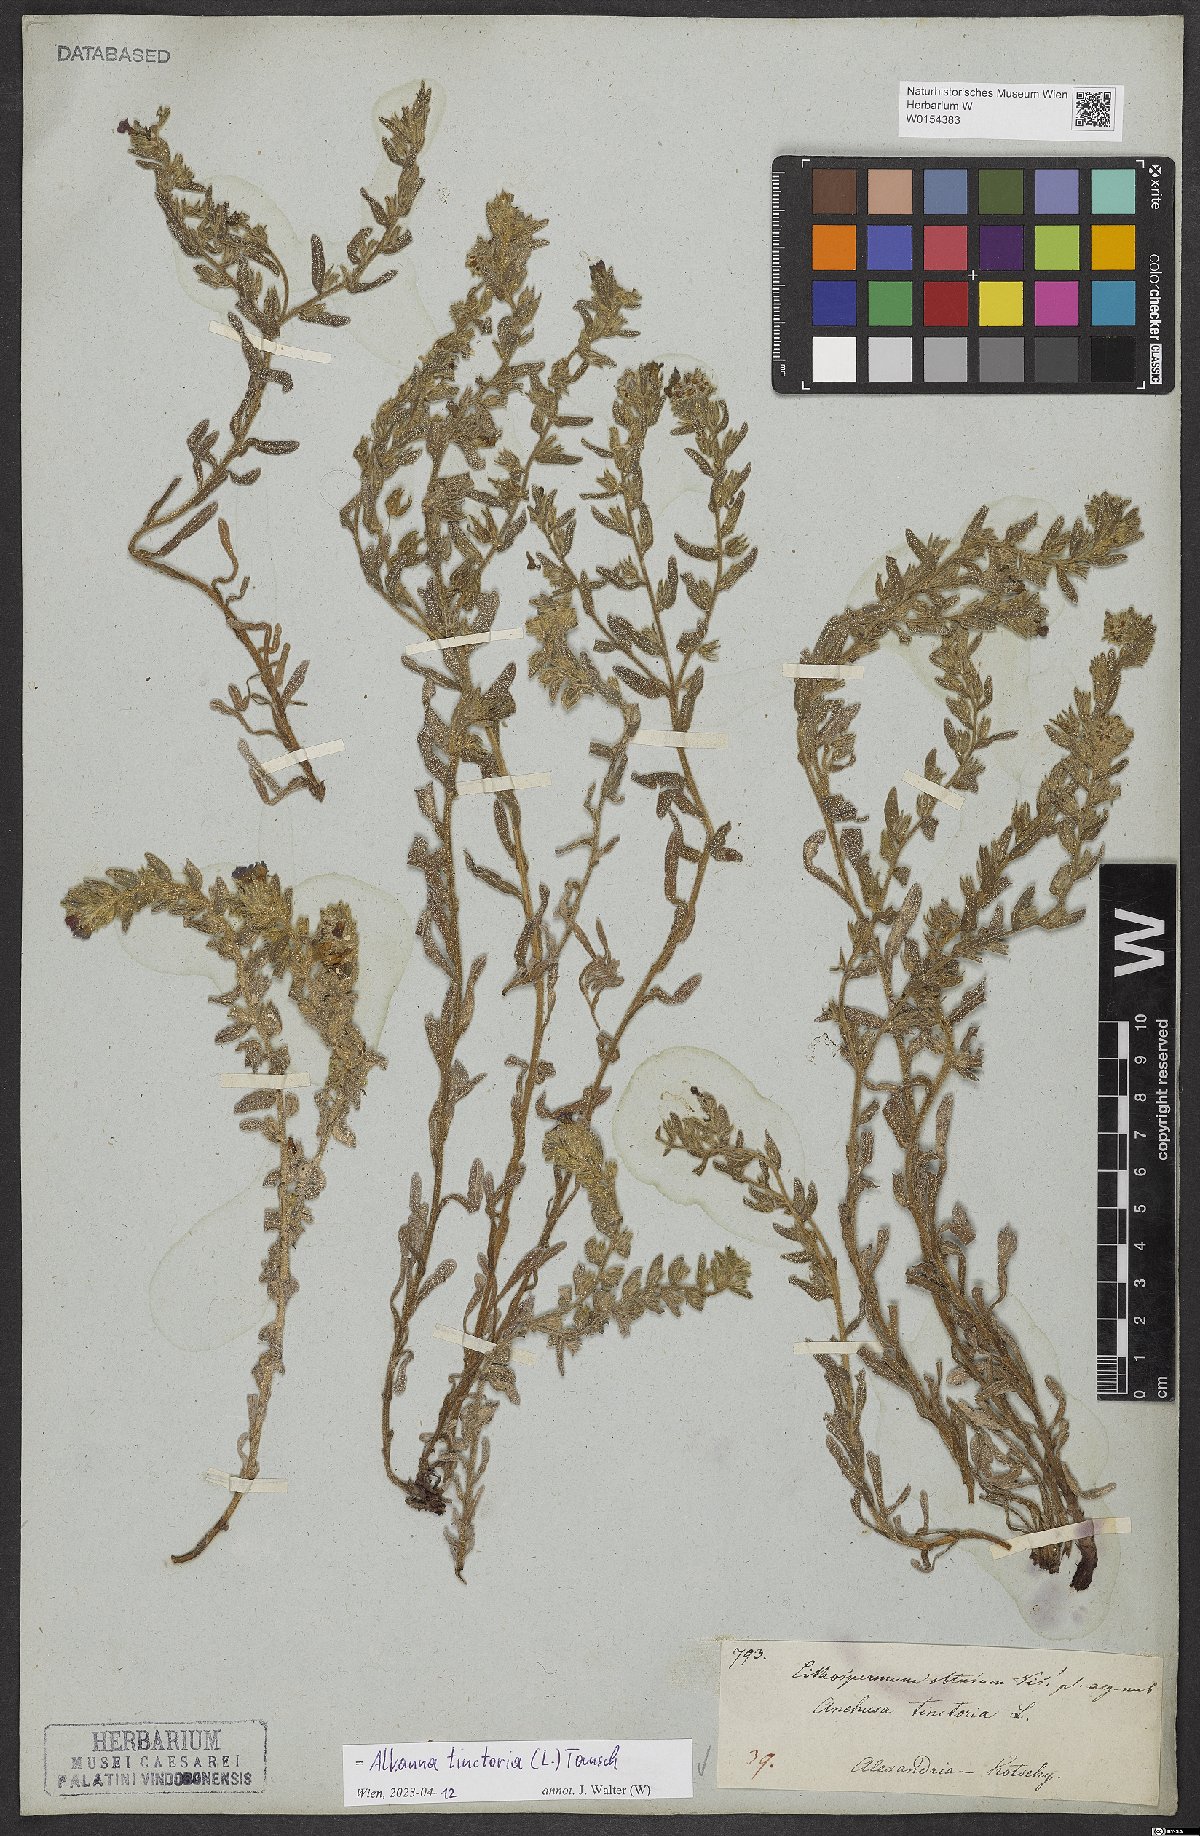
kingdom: Plantae
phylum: Tracheophyta
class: Magnoliopsida
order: Boraginales
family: Boraginaceae
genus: Alkanna
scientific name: Alkanna tinctoria
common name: Dyer's-alkanet
